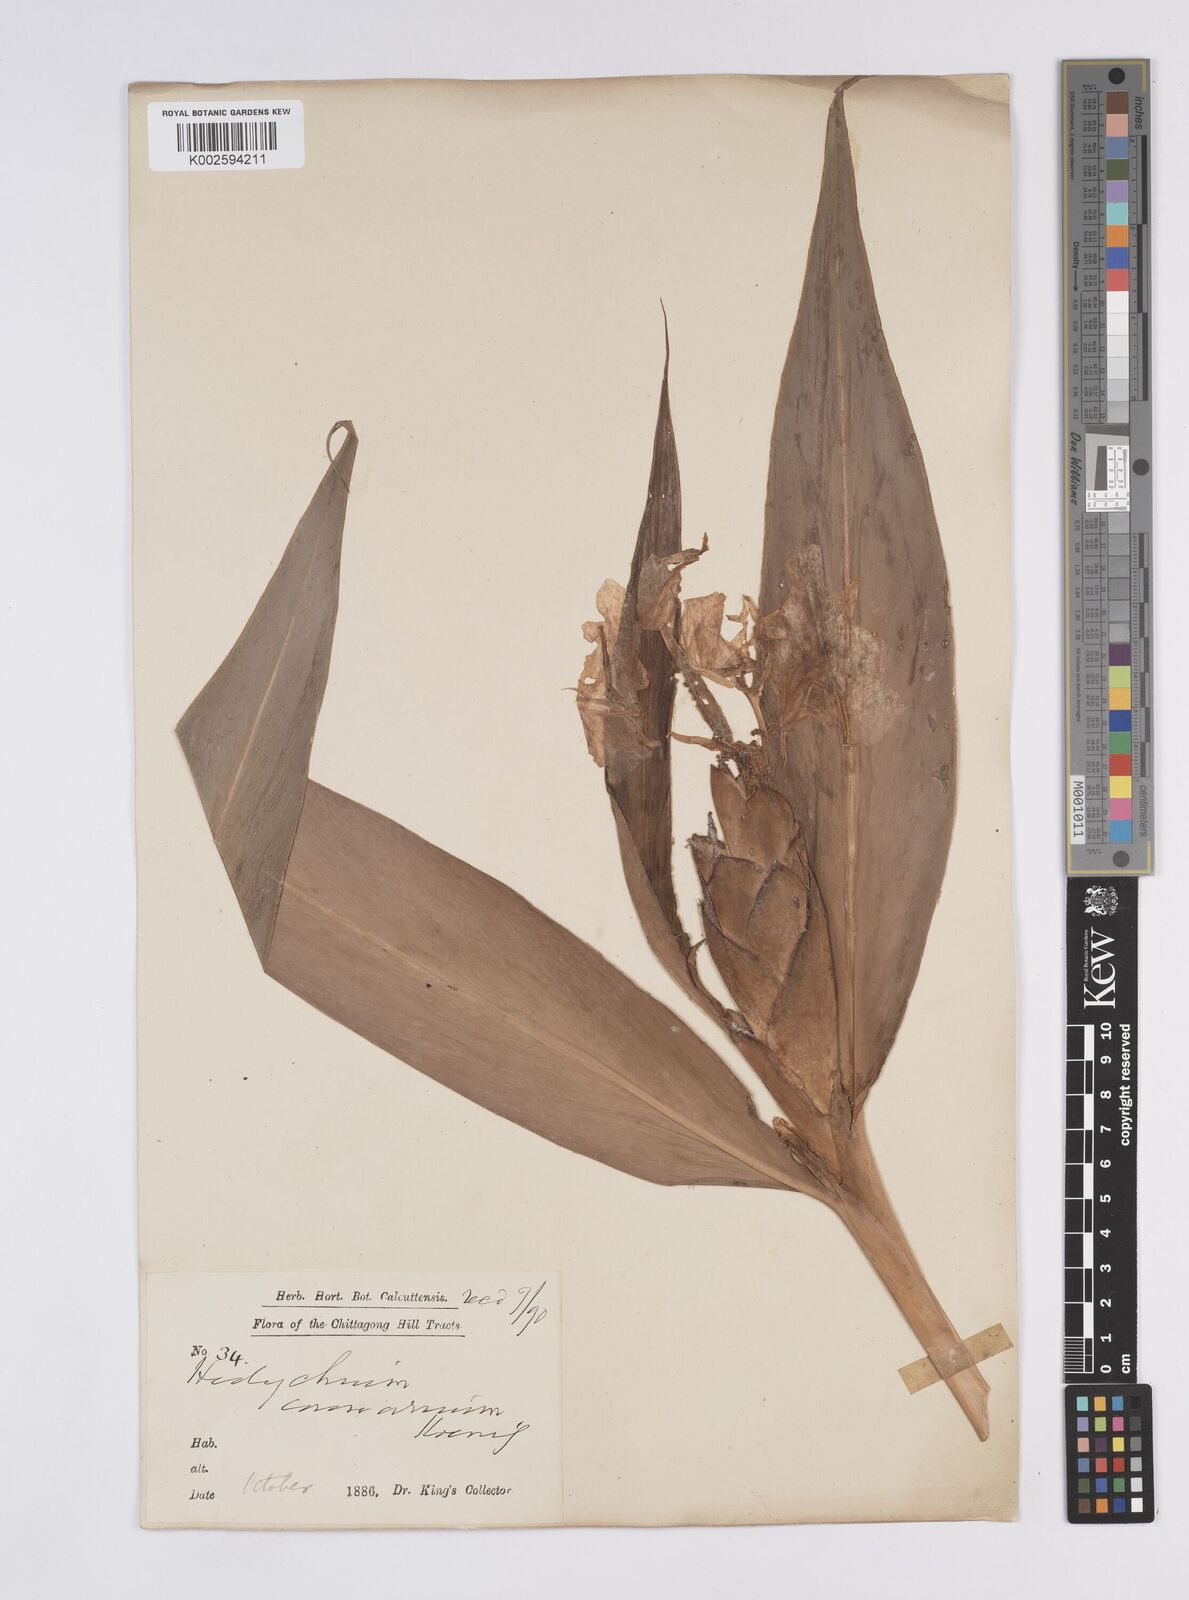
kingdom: Plantae
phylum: Tracheophyta
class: Liliopsida
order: Zingiberales
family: Zingiberaceae
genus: Hedychium
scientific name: Hedychium coronarium
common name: White garland-lily
